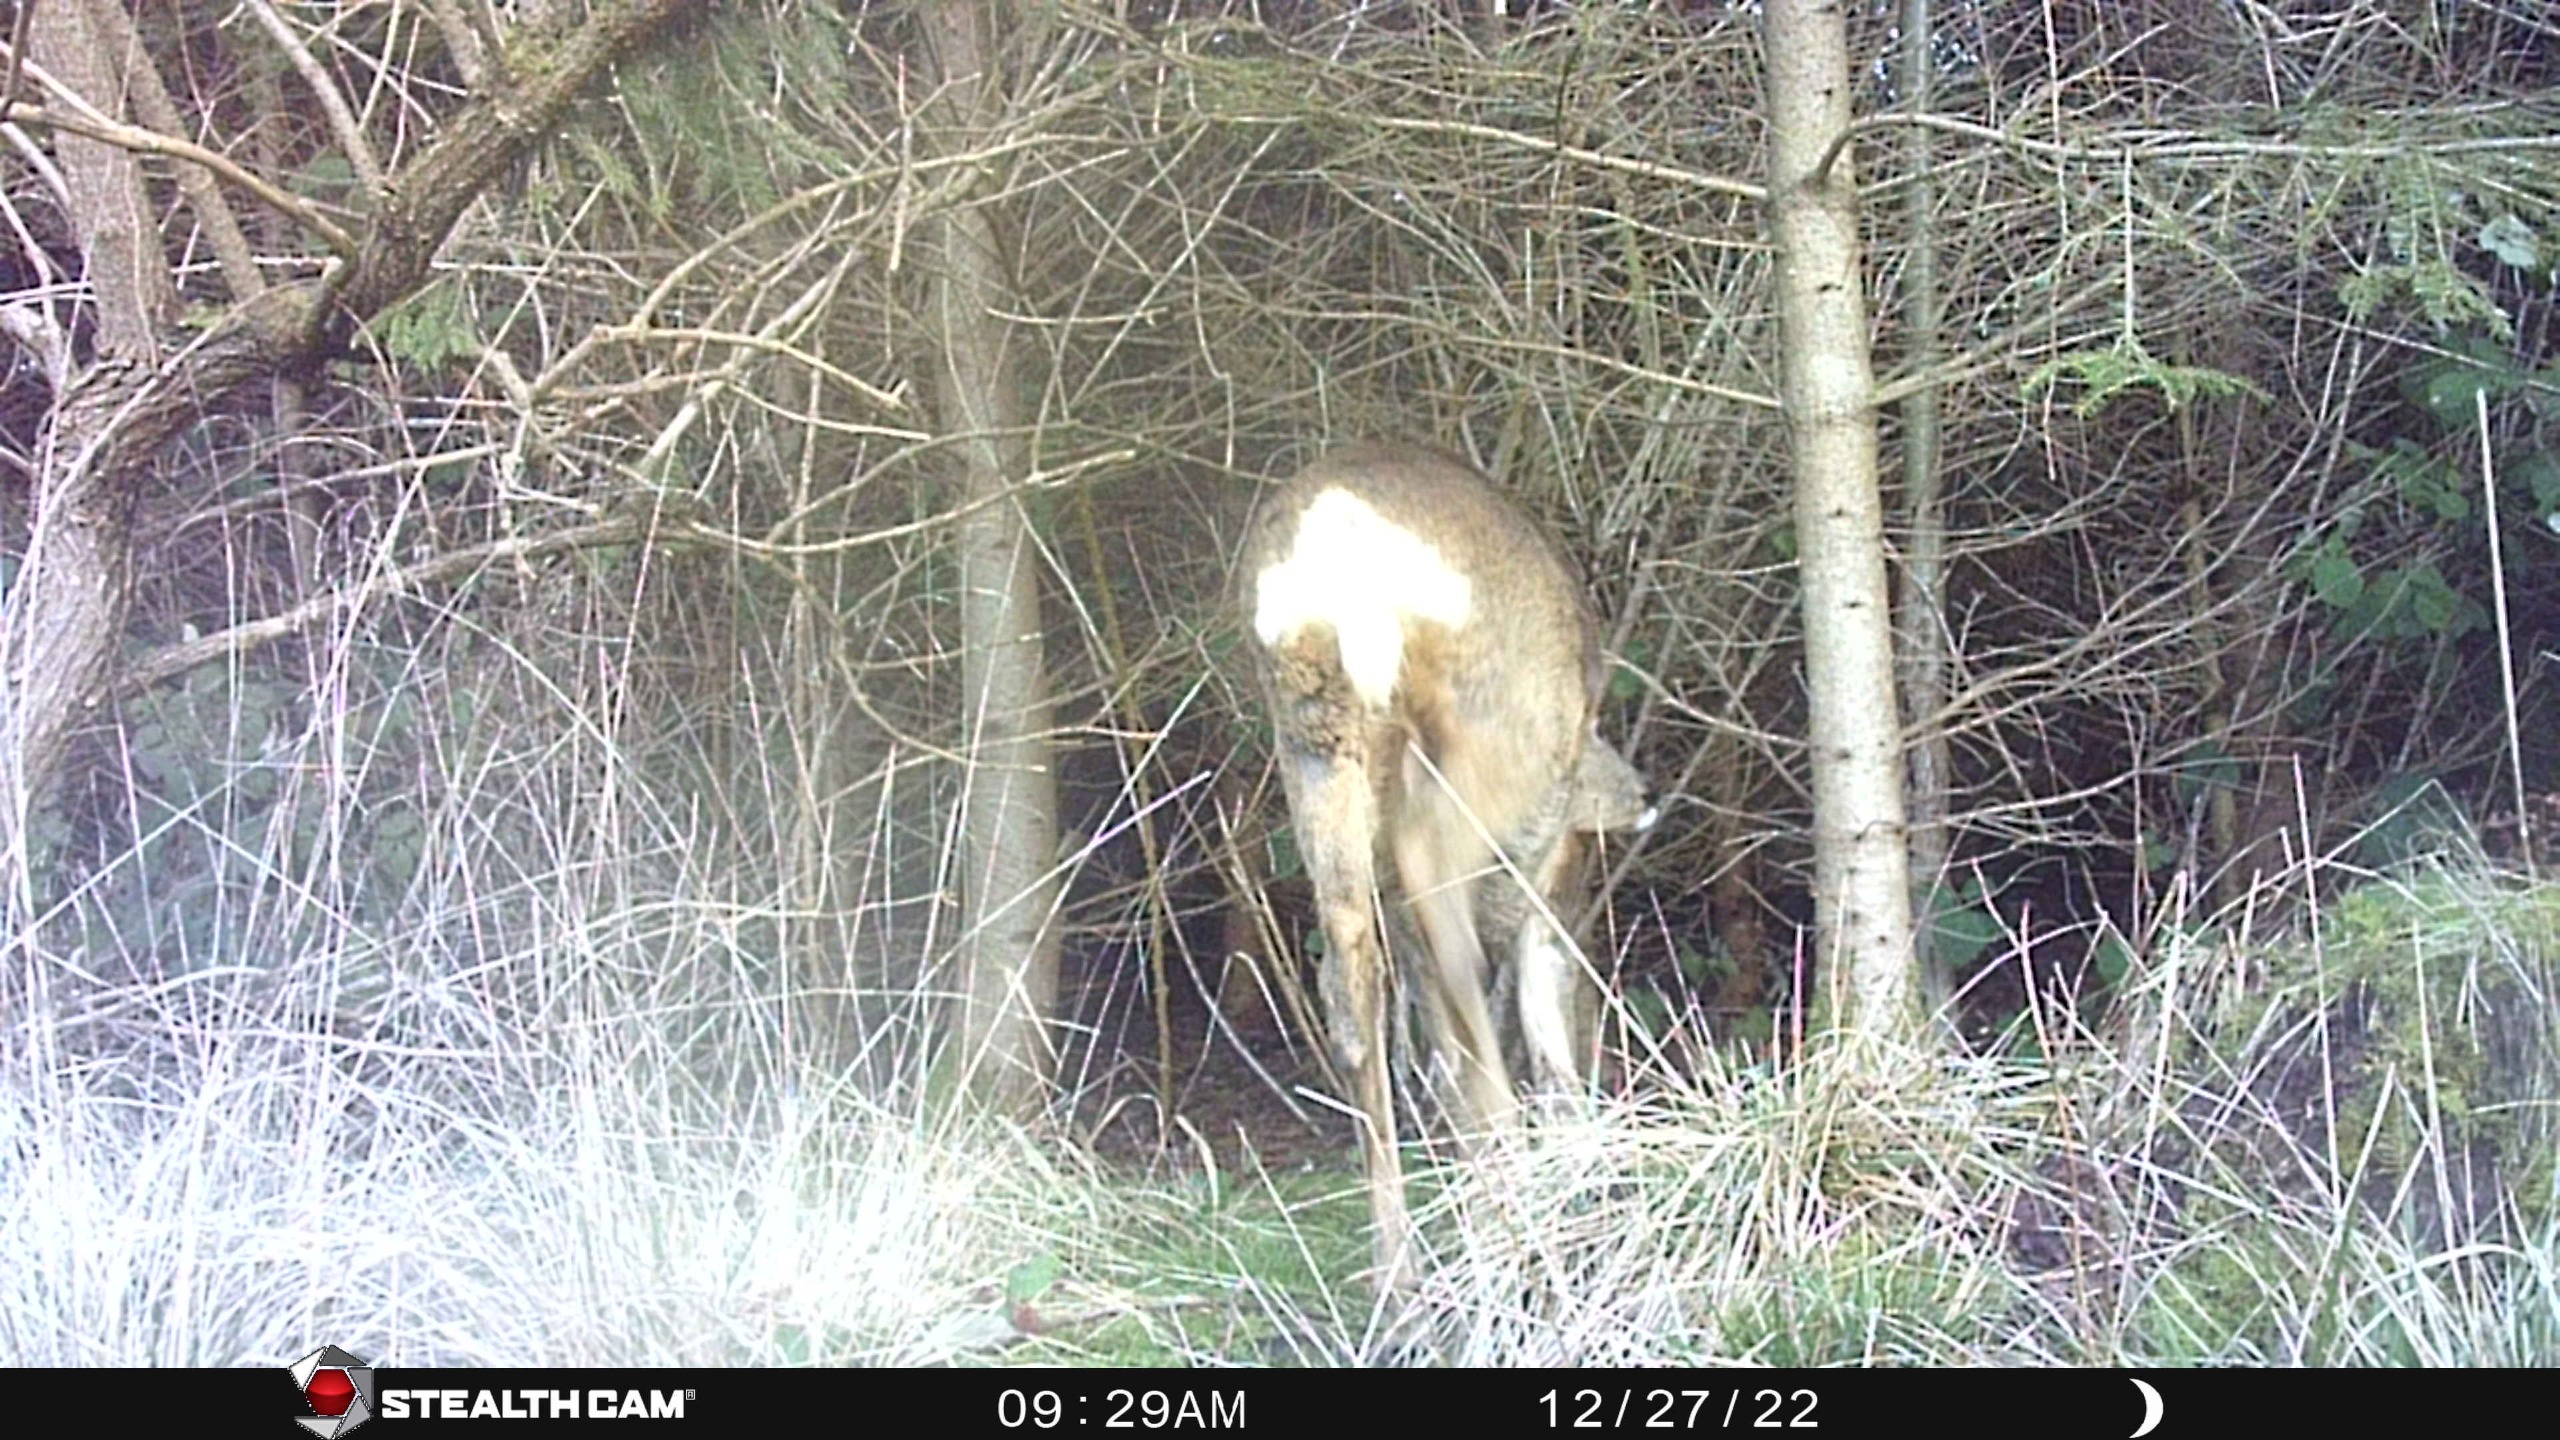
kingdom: Animalia
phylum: Chordata
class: Mammalia
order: Artiodactyla
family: Cervidae
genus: Capreolus
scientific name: Capreolus capreolus
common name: Rådyr
